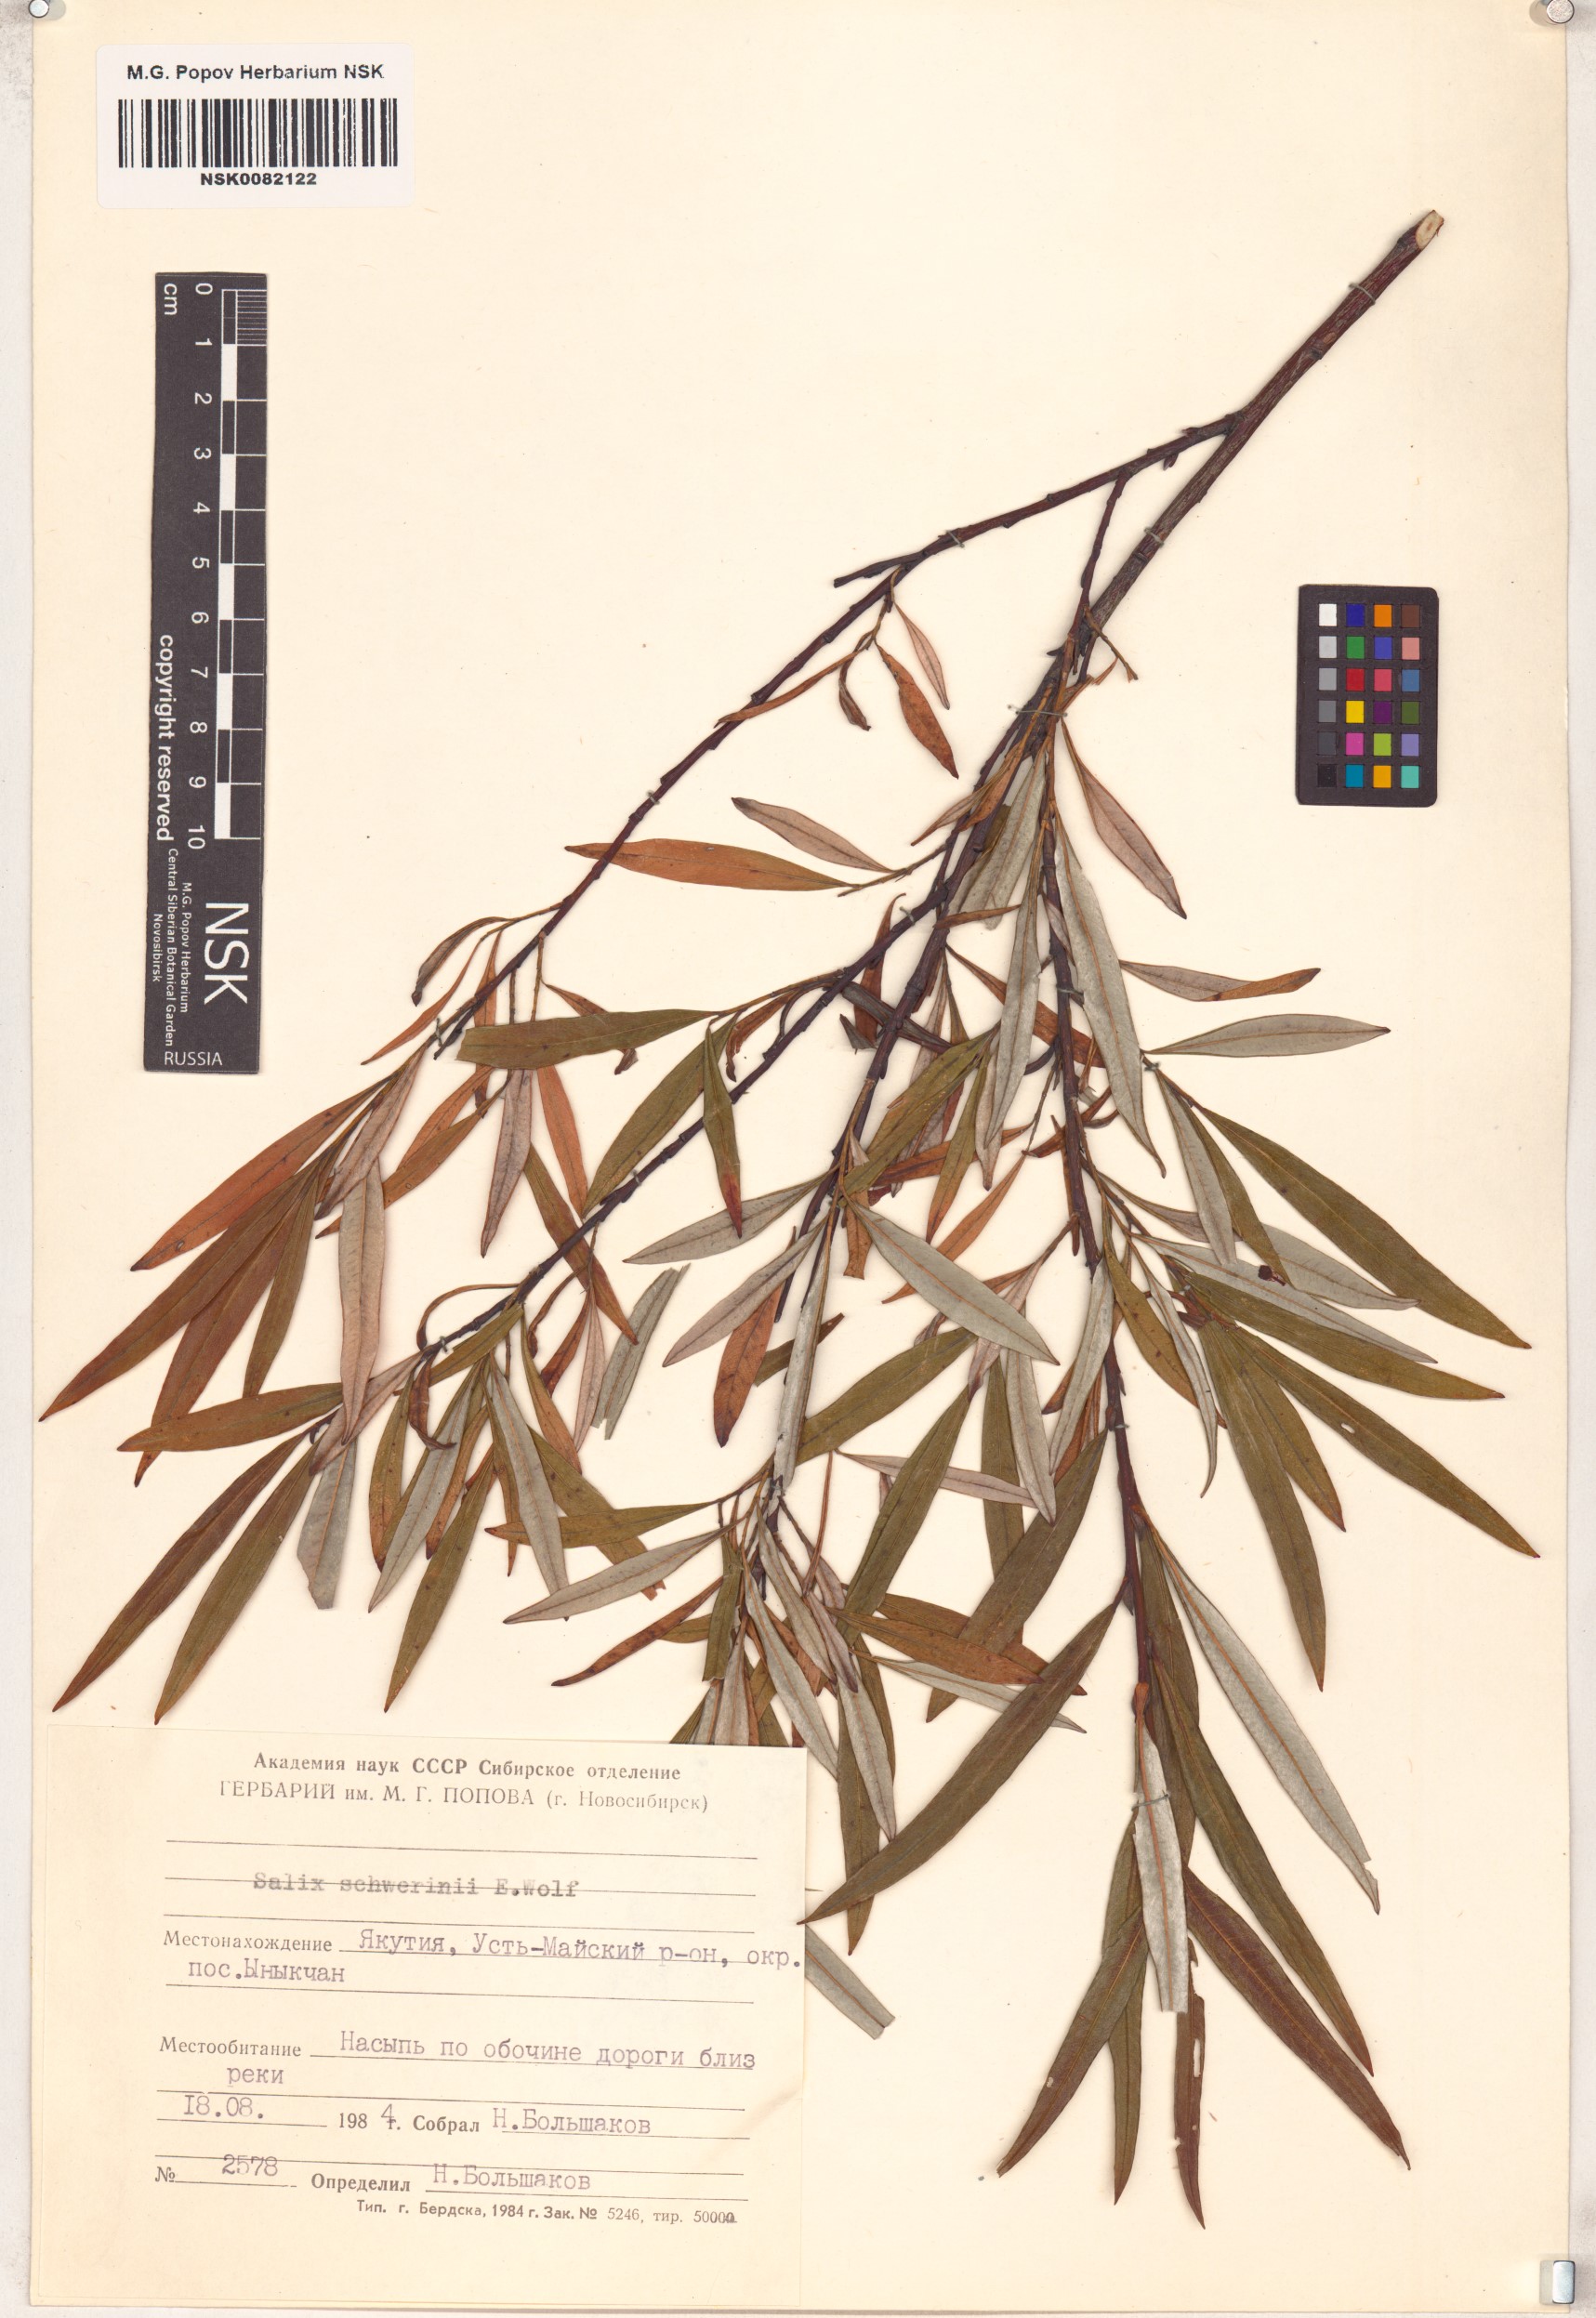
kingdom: Plantae
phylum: Tracheophyta
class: Magnoliopsida
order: Malpighiales
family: Salicaceae
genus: Salix
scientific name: Salix schwerinii
